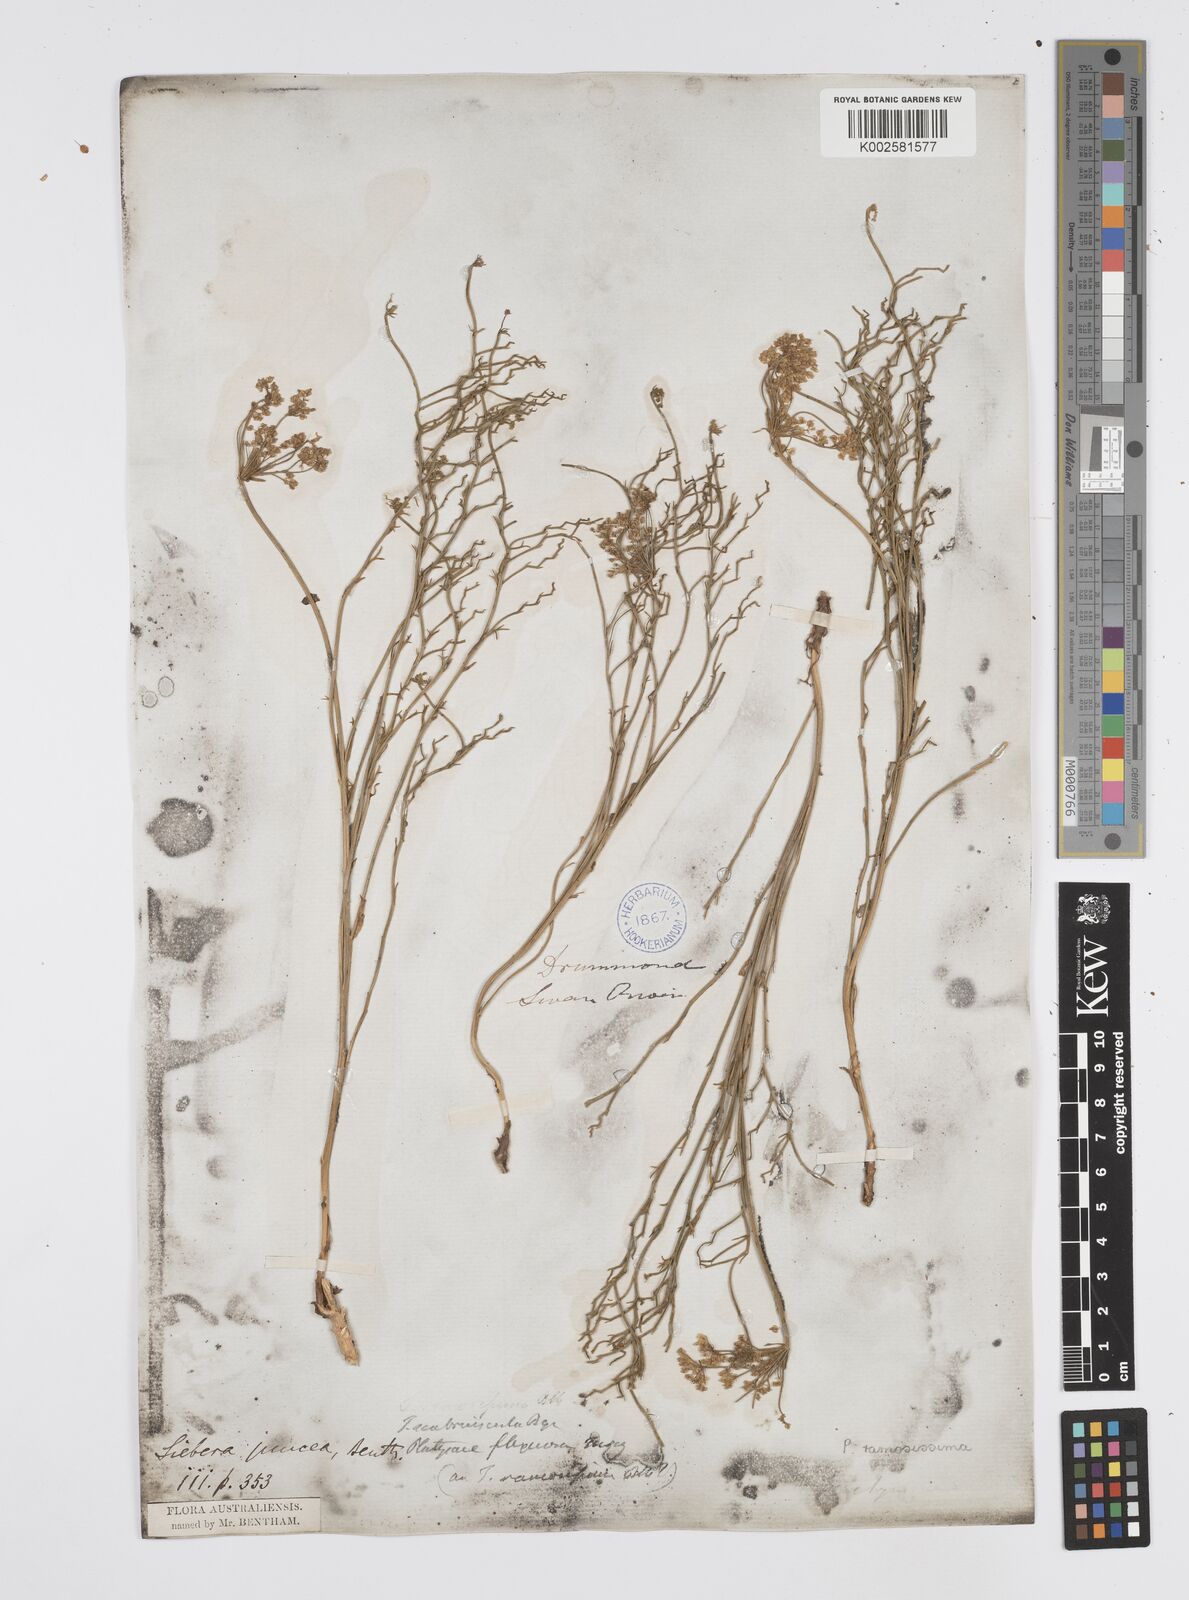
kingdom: Plantae
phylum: Tracheophyta
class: Magnoliopsida
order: Apiales
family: Apiaceae
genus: Platysace
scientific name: Platysace ramosissima
